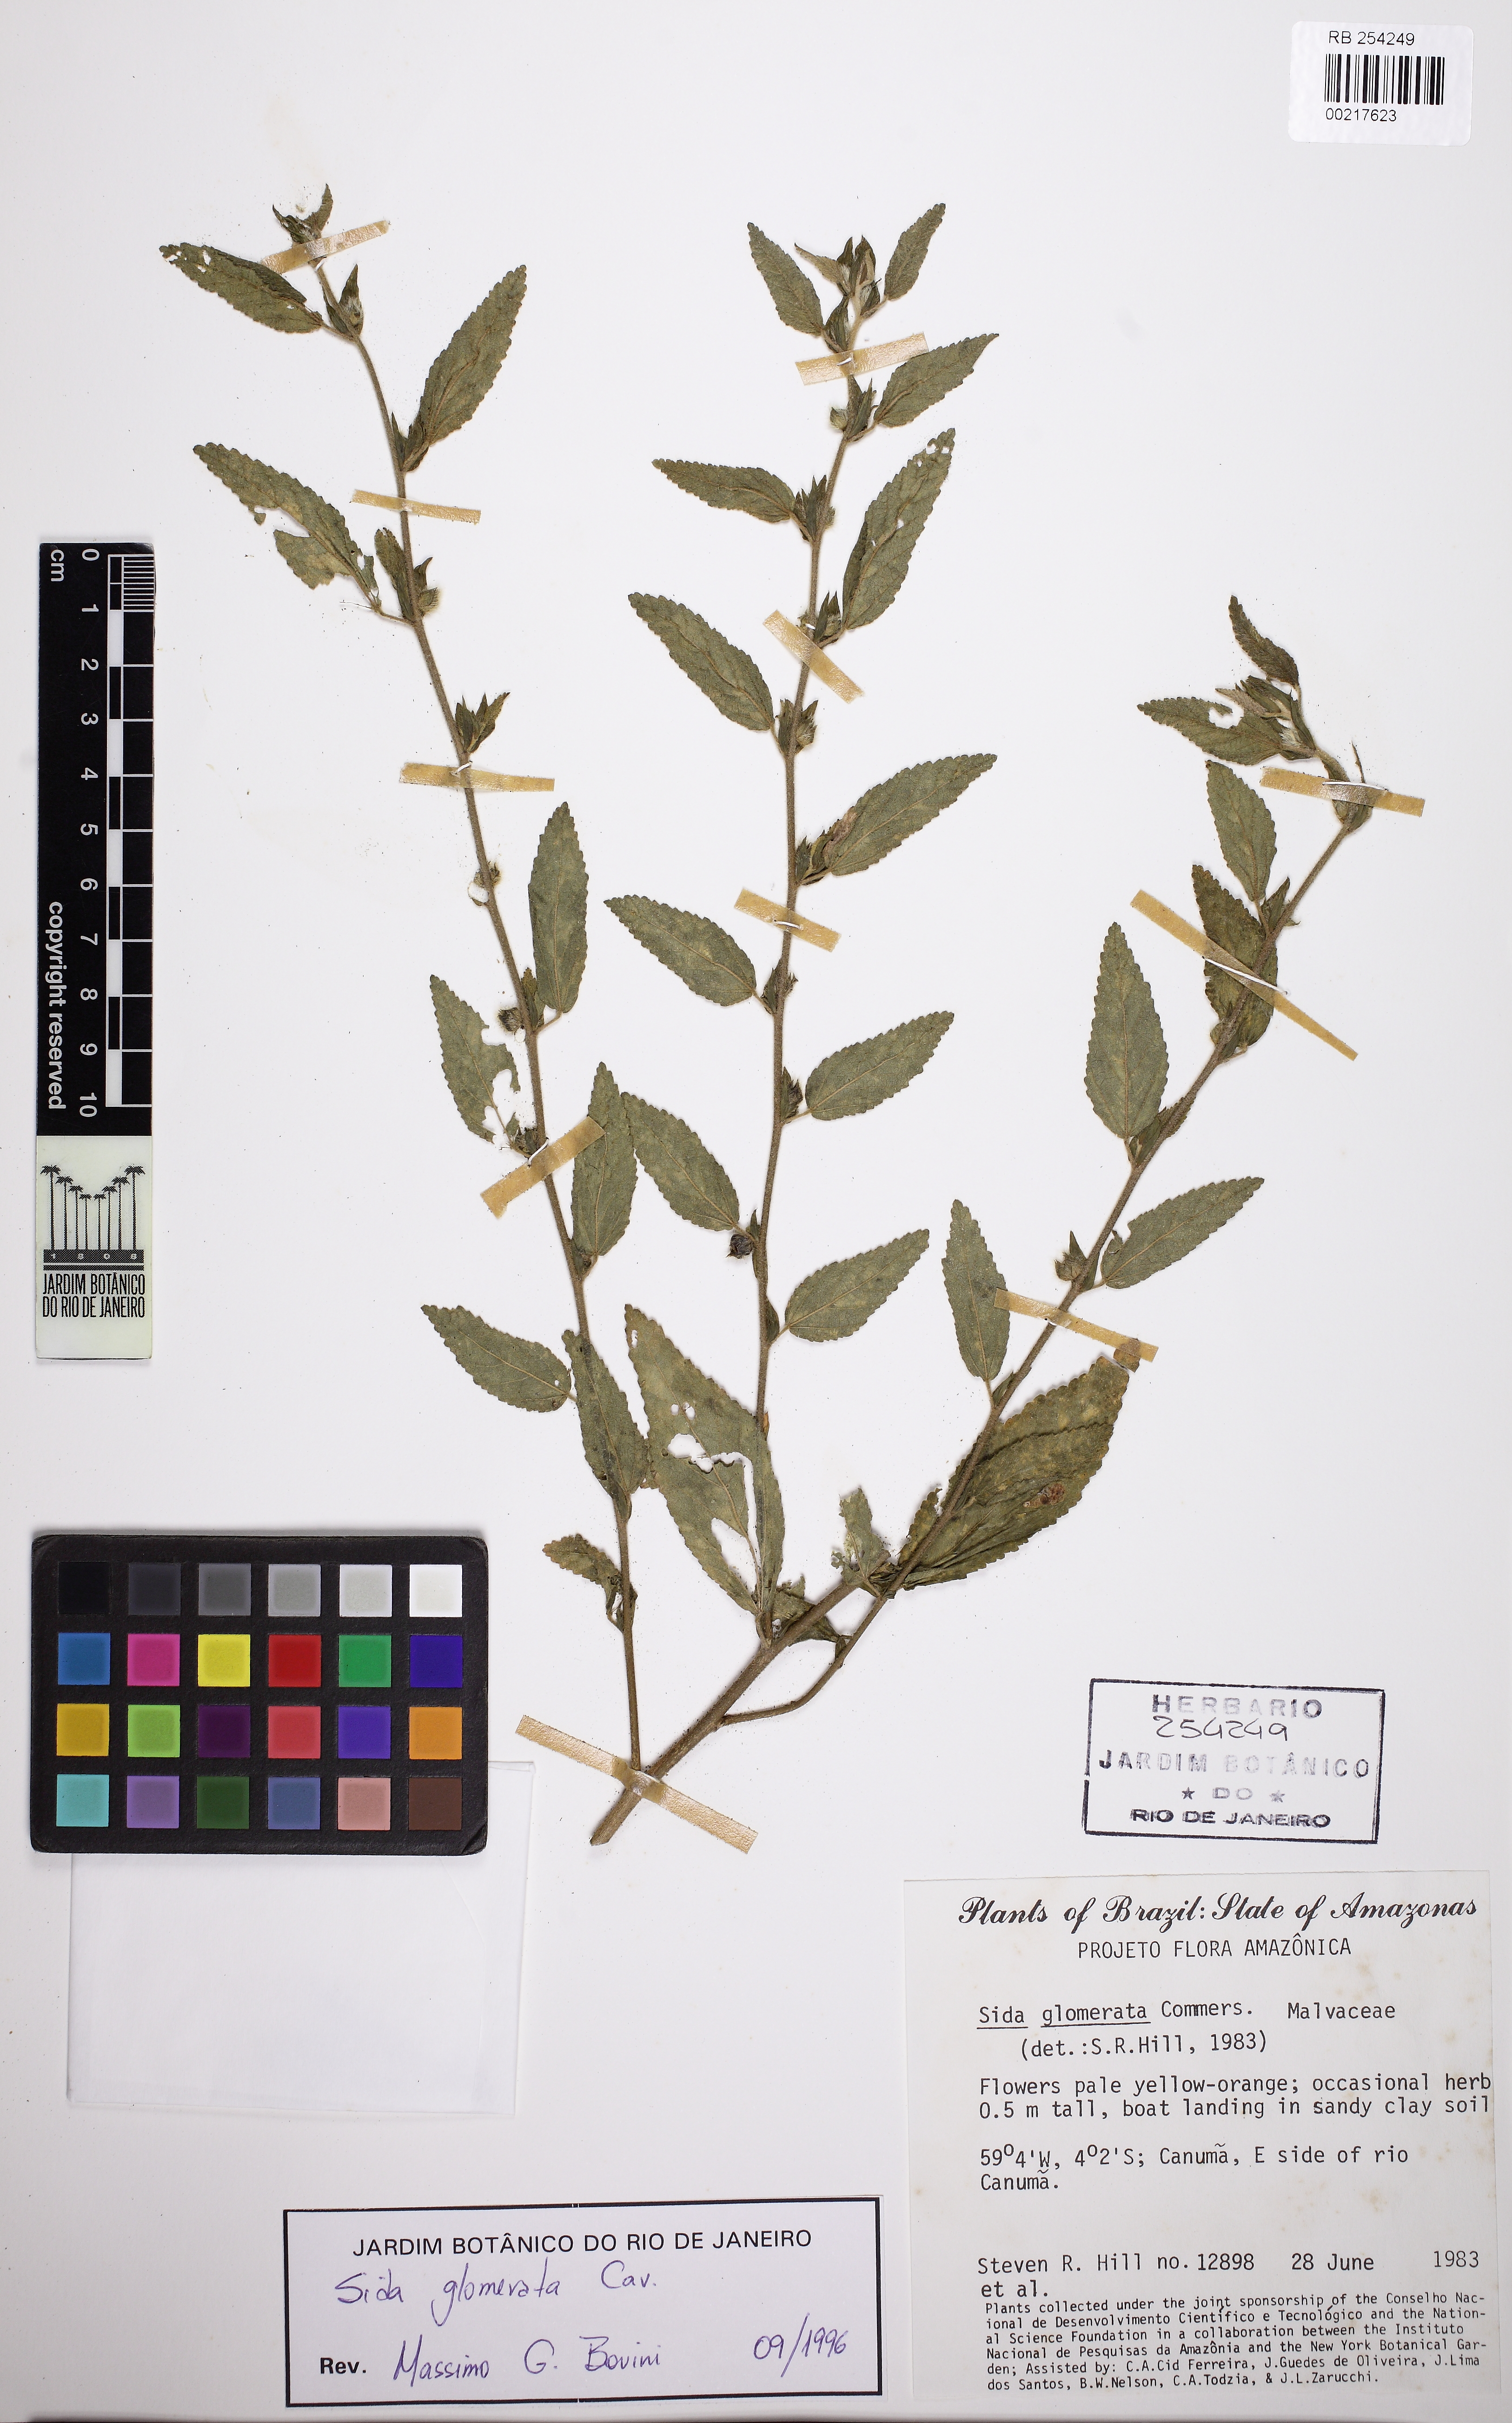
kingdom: Plantae
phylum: Tracheophyta
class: Magnoliopsida
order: Malvales
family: Malvaceae
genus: Sida
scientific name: Sida glomerata
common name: Clustered fanpetals
